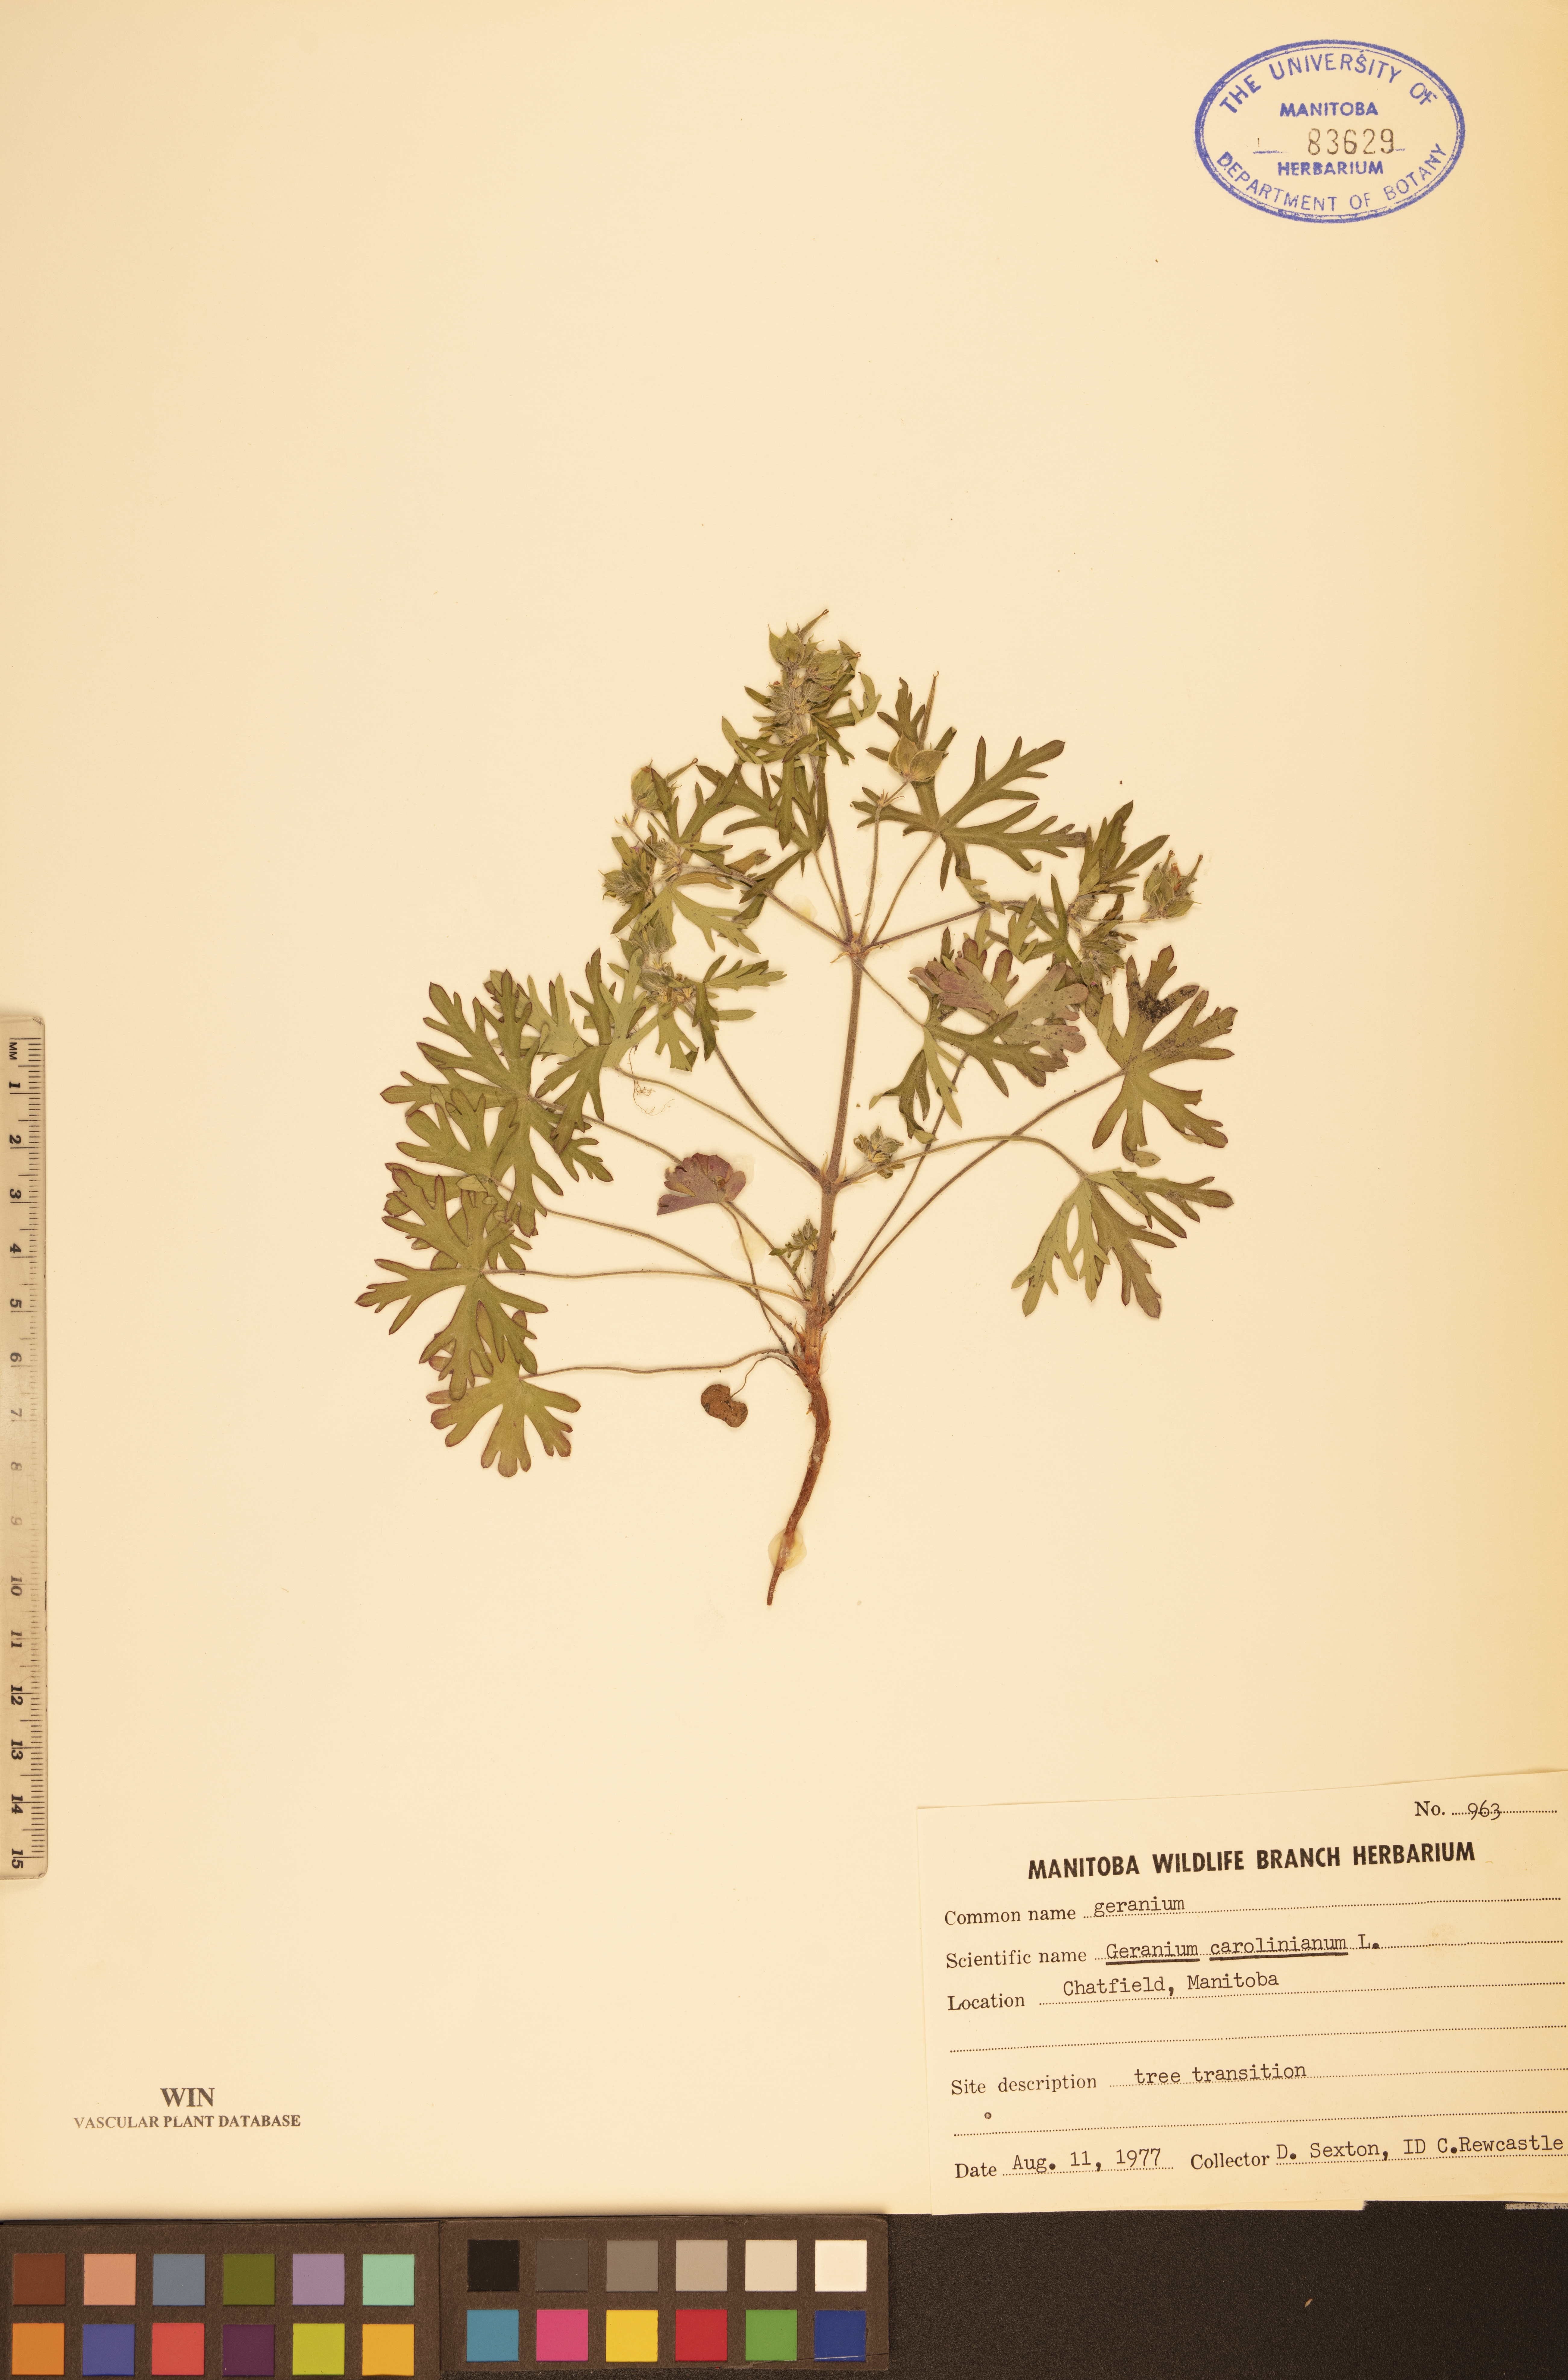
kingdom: Plantae
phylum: Tracheophyta
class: Magnoliopsida
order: Geraniales
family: Geraniaceae
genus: Geranium
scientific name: Geranium carolinianum
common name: Carolina crane's-bill
